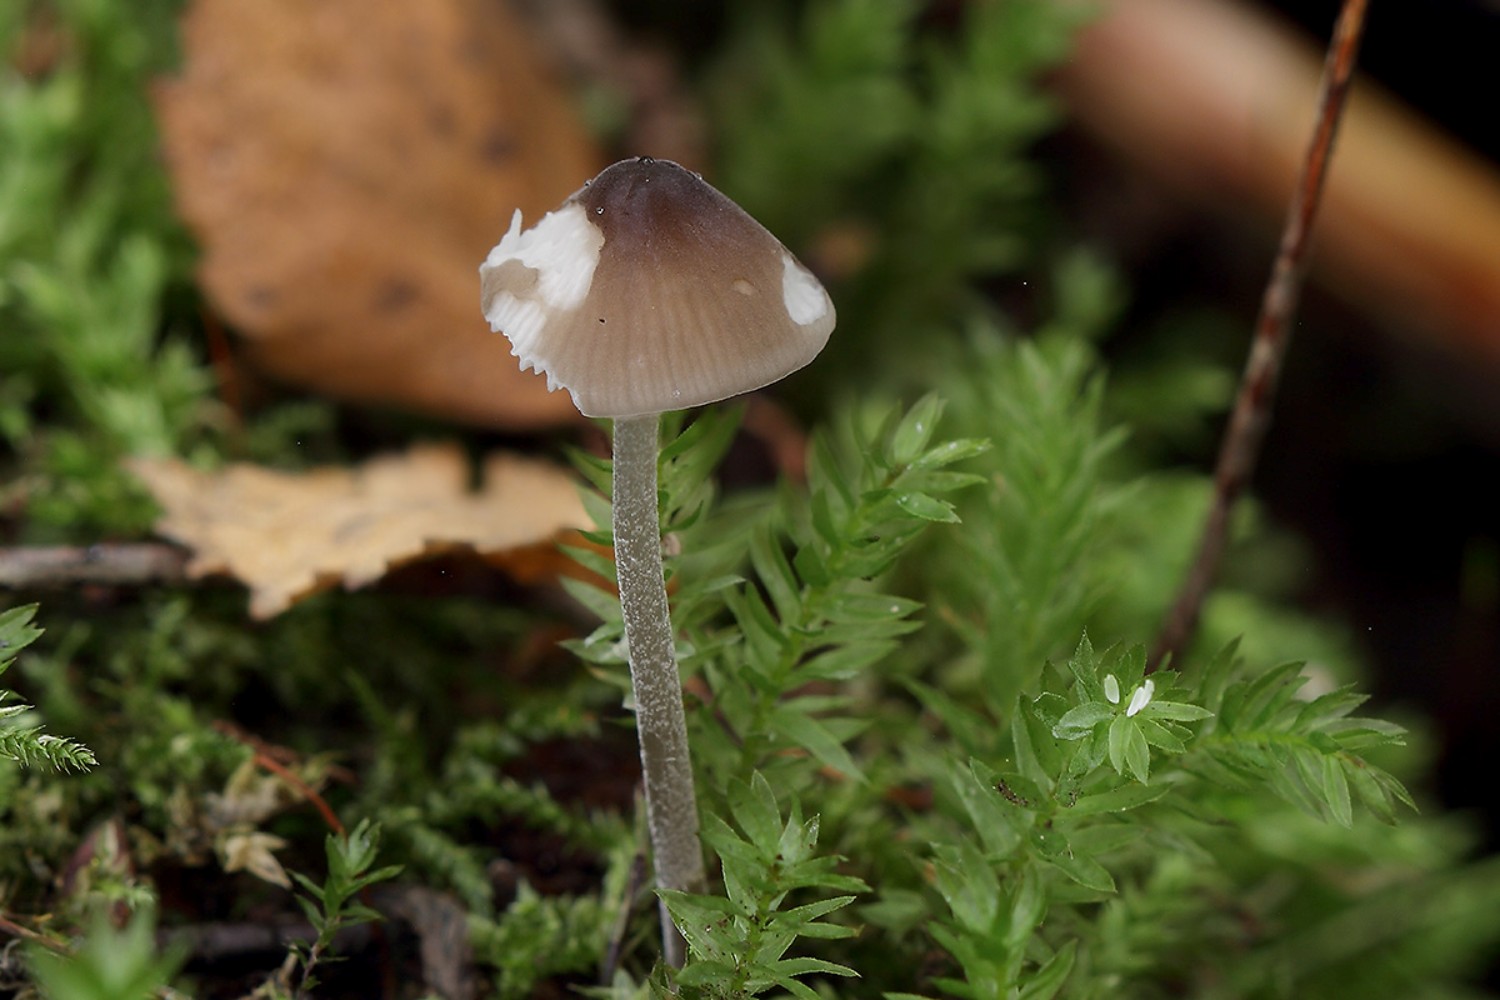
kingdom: Fungi
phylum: Basidiomycota
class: Agaricomycetes
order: Agaricales
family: Tricholomataceae
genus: Mycenella
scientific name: Mycenella bryophila
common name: mos-dughat
